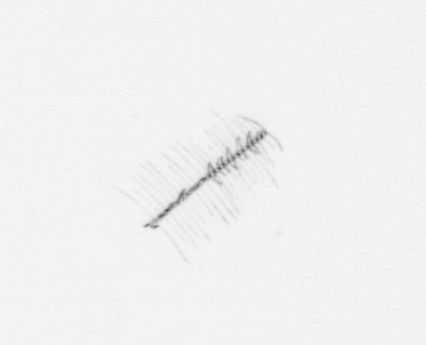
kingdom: Chromista
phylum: Ochrophyta
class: Bacillariophyceae
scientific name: Bacillariophyceae
